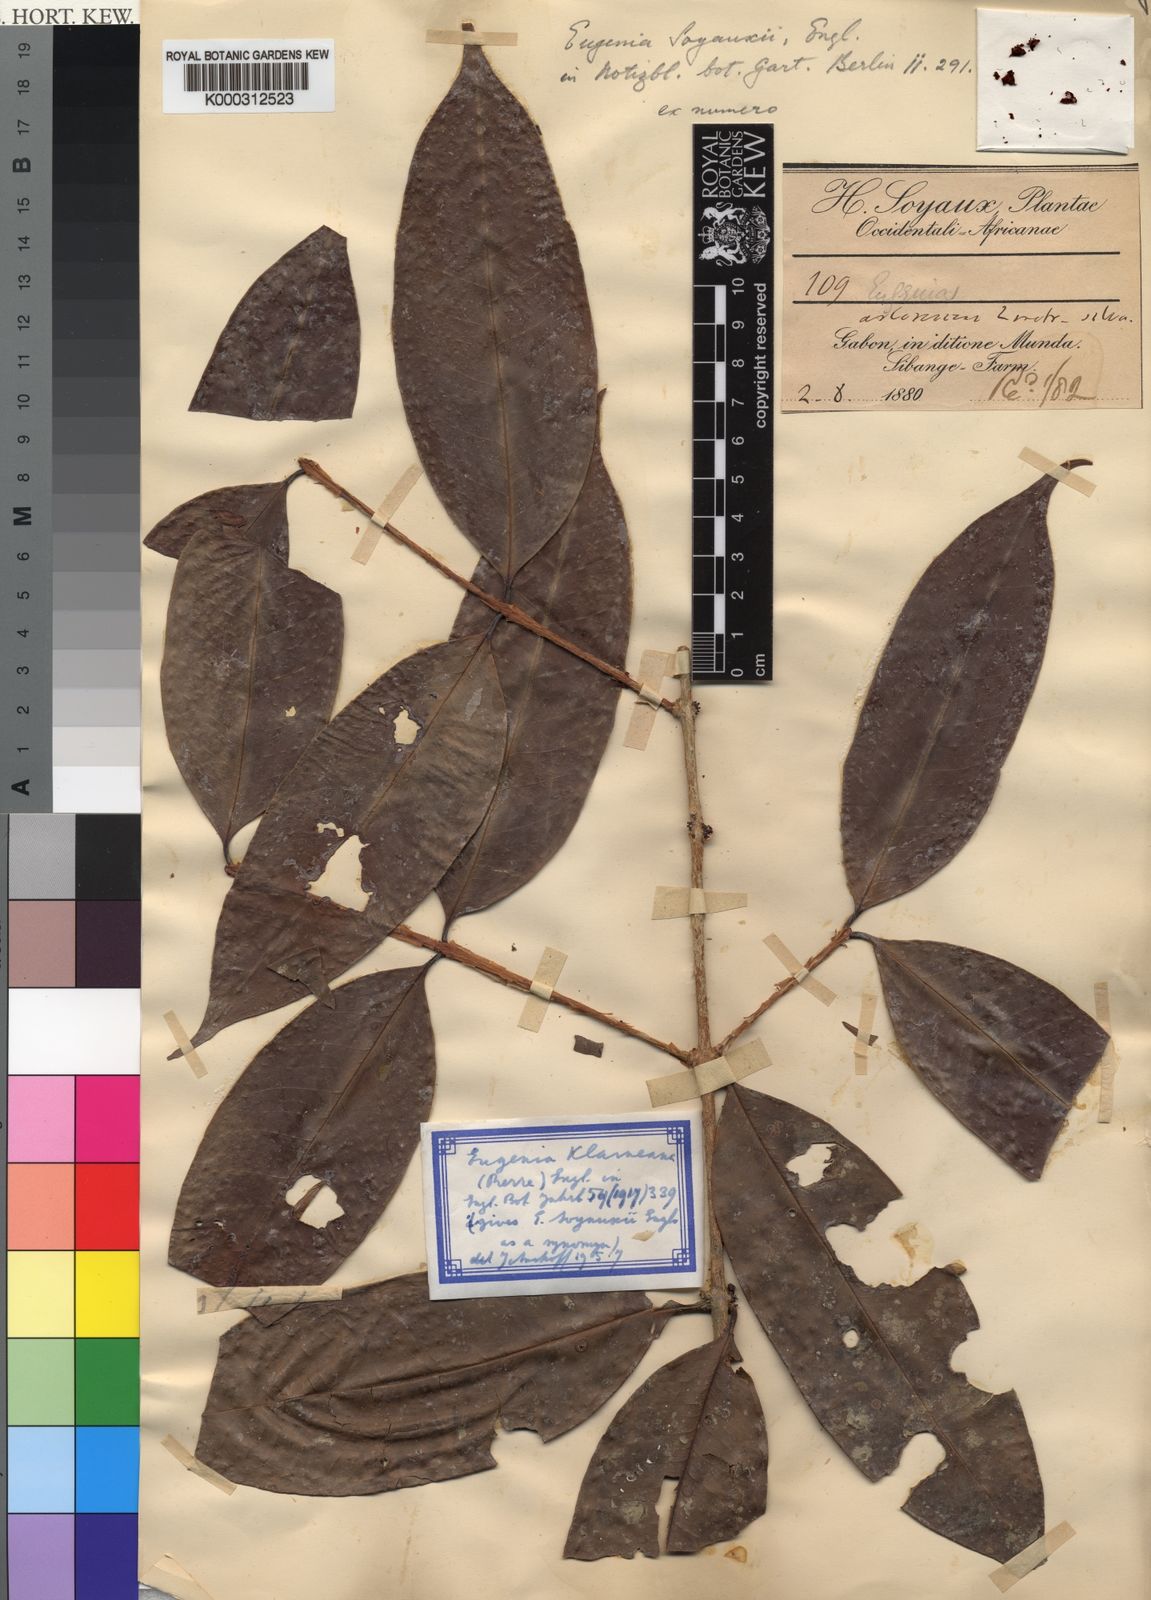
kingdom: Plantae
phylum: Tracheophyta
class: Magnoliopsida
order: Myrtales
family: Myrtaceae
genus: Eugenia
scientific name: Eugenia klaineana
